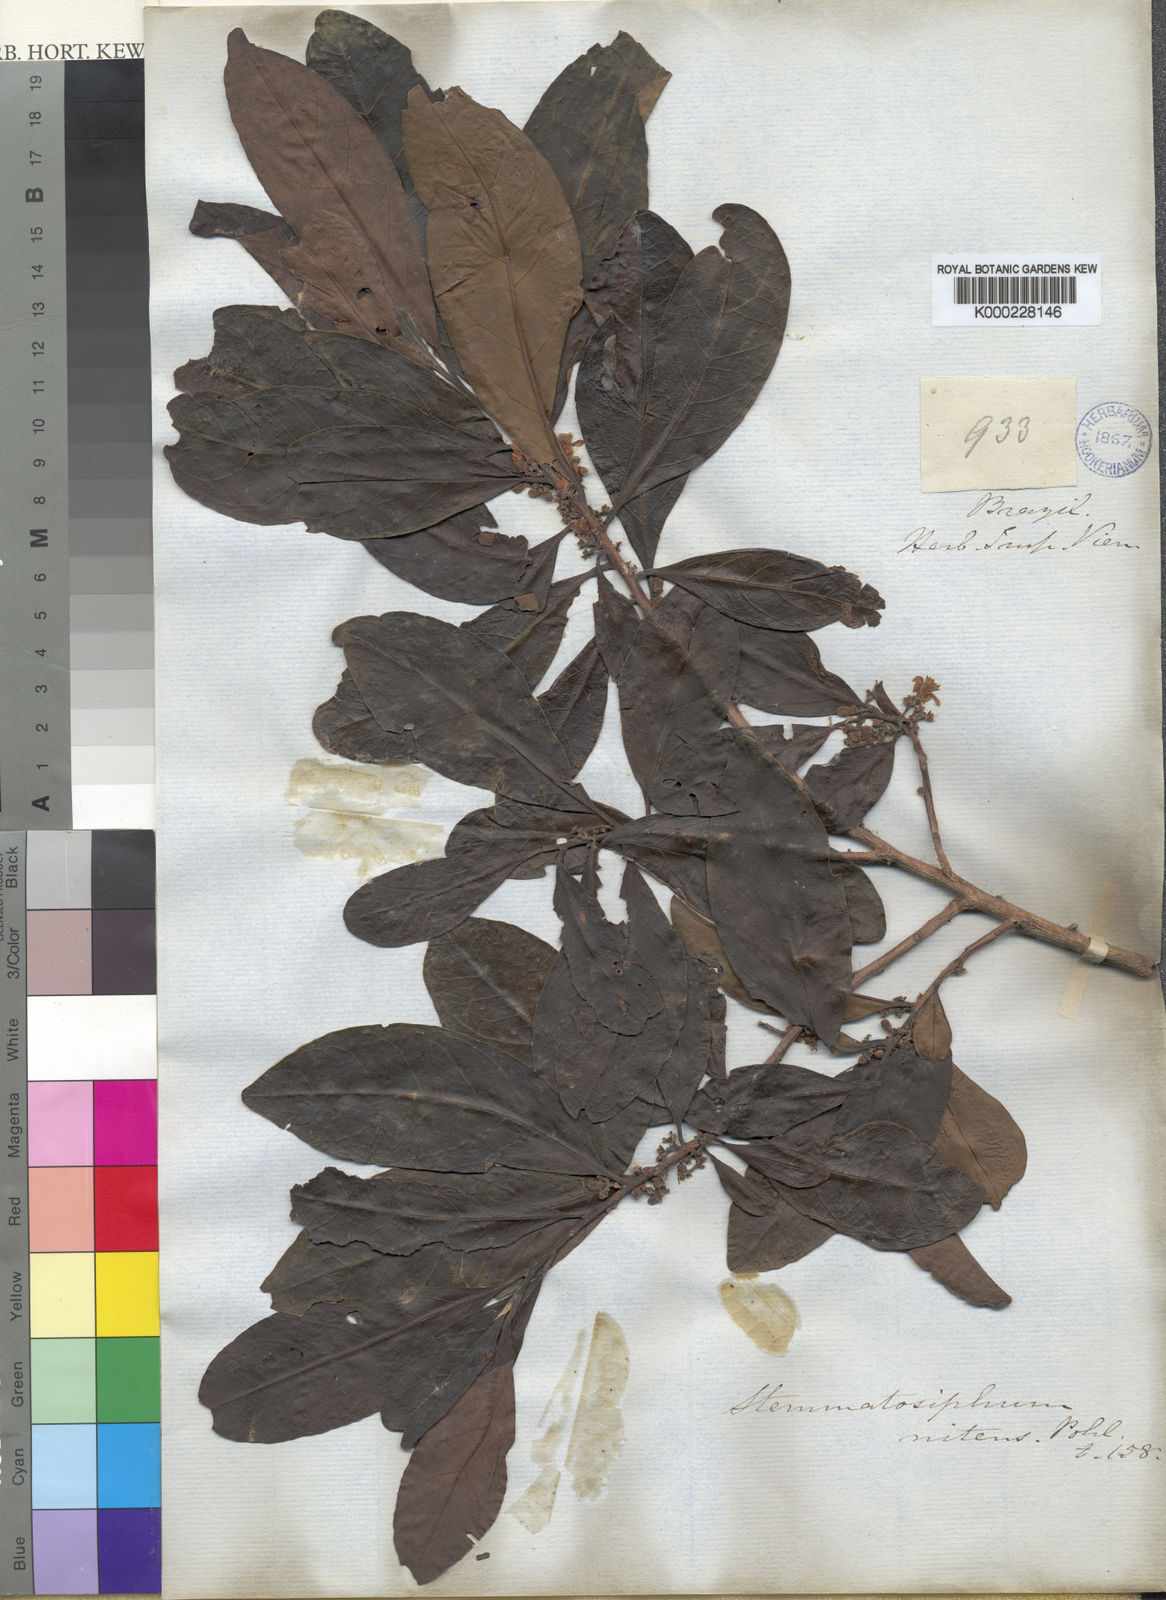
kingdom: Plantae
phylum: Tracheophyta
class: Magnoliopsida
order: Ericales
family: Symplocaceae
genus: Symplocos
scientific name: Symplocos nitens
